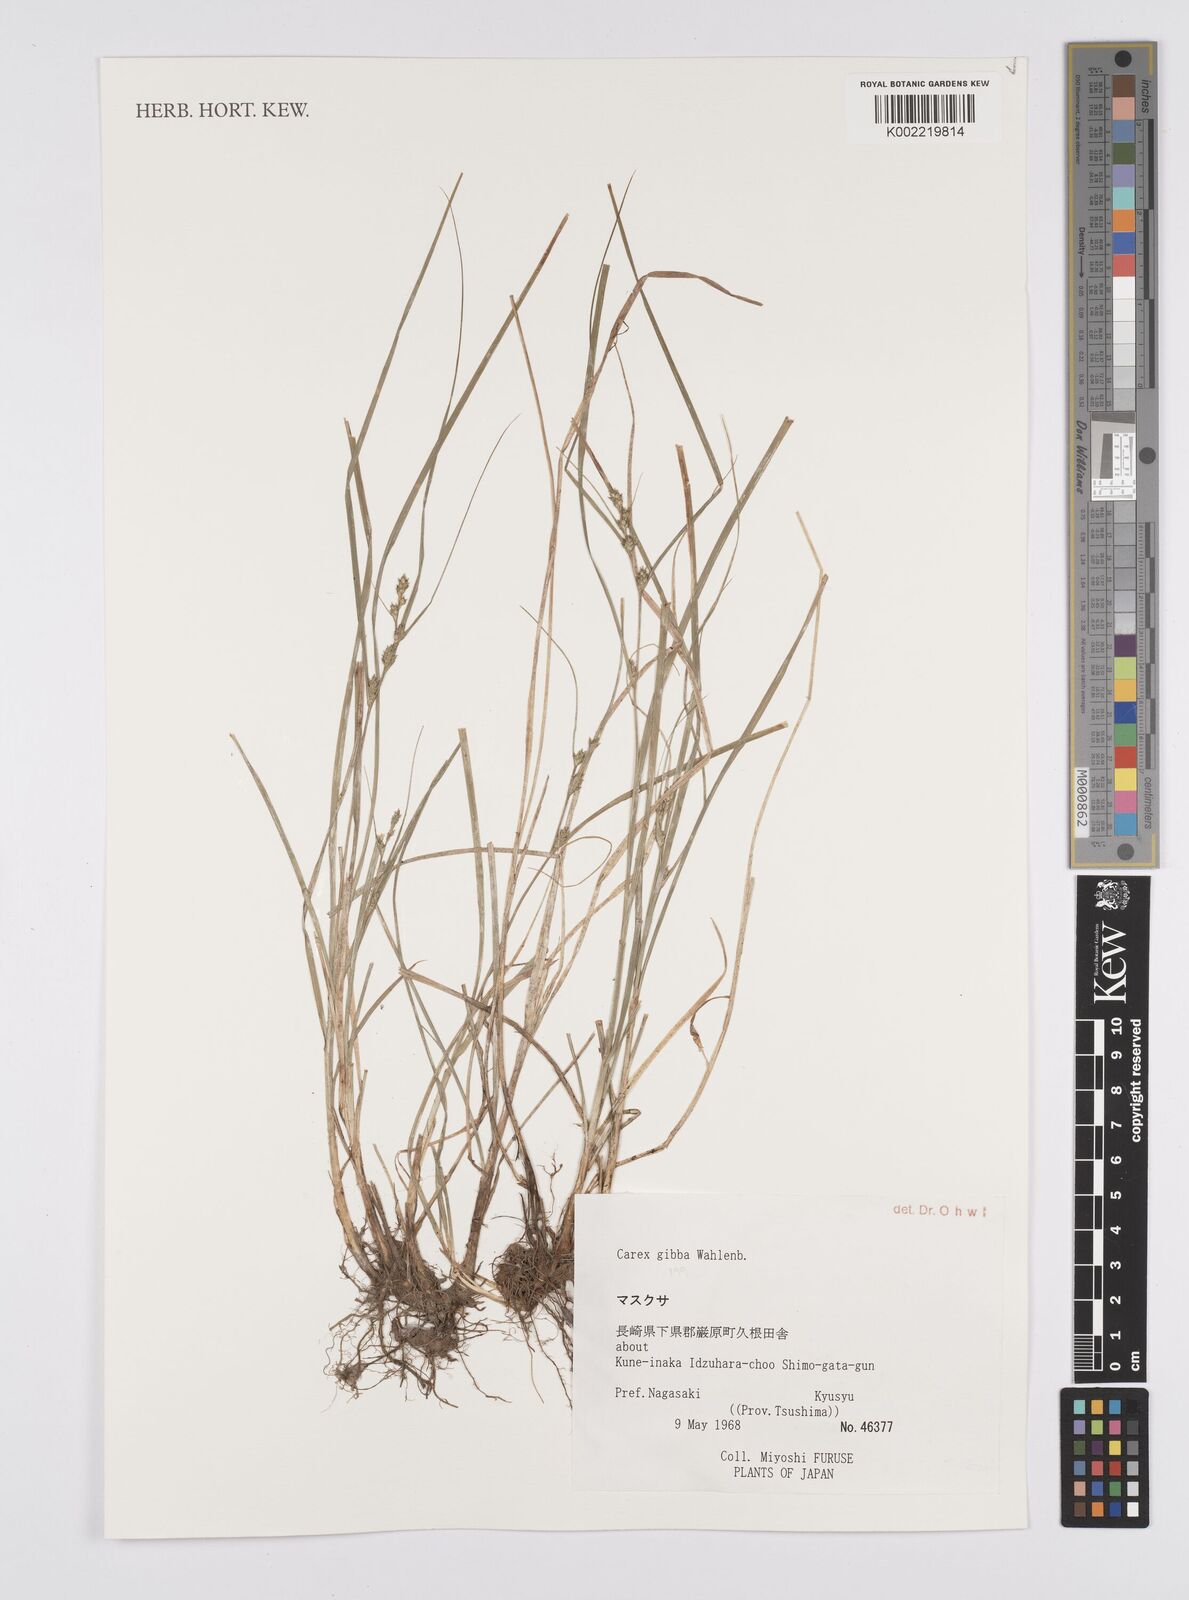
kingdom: Plantae
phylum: Tracheophyta
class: Liliopsida
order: Poales
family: Cyperaceae
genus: Carex
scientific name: Carex gibba
